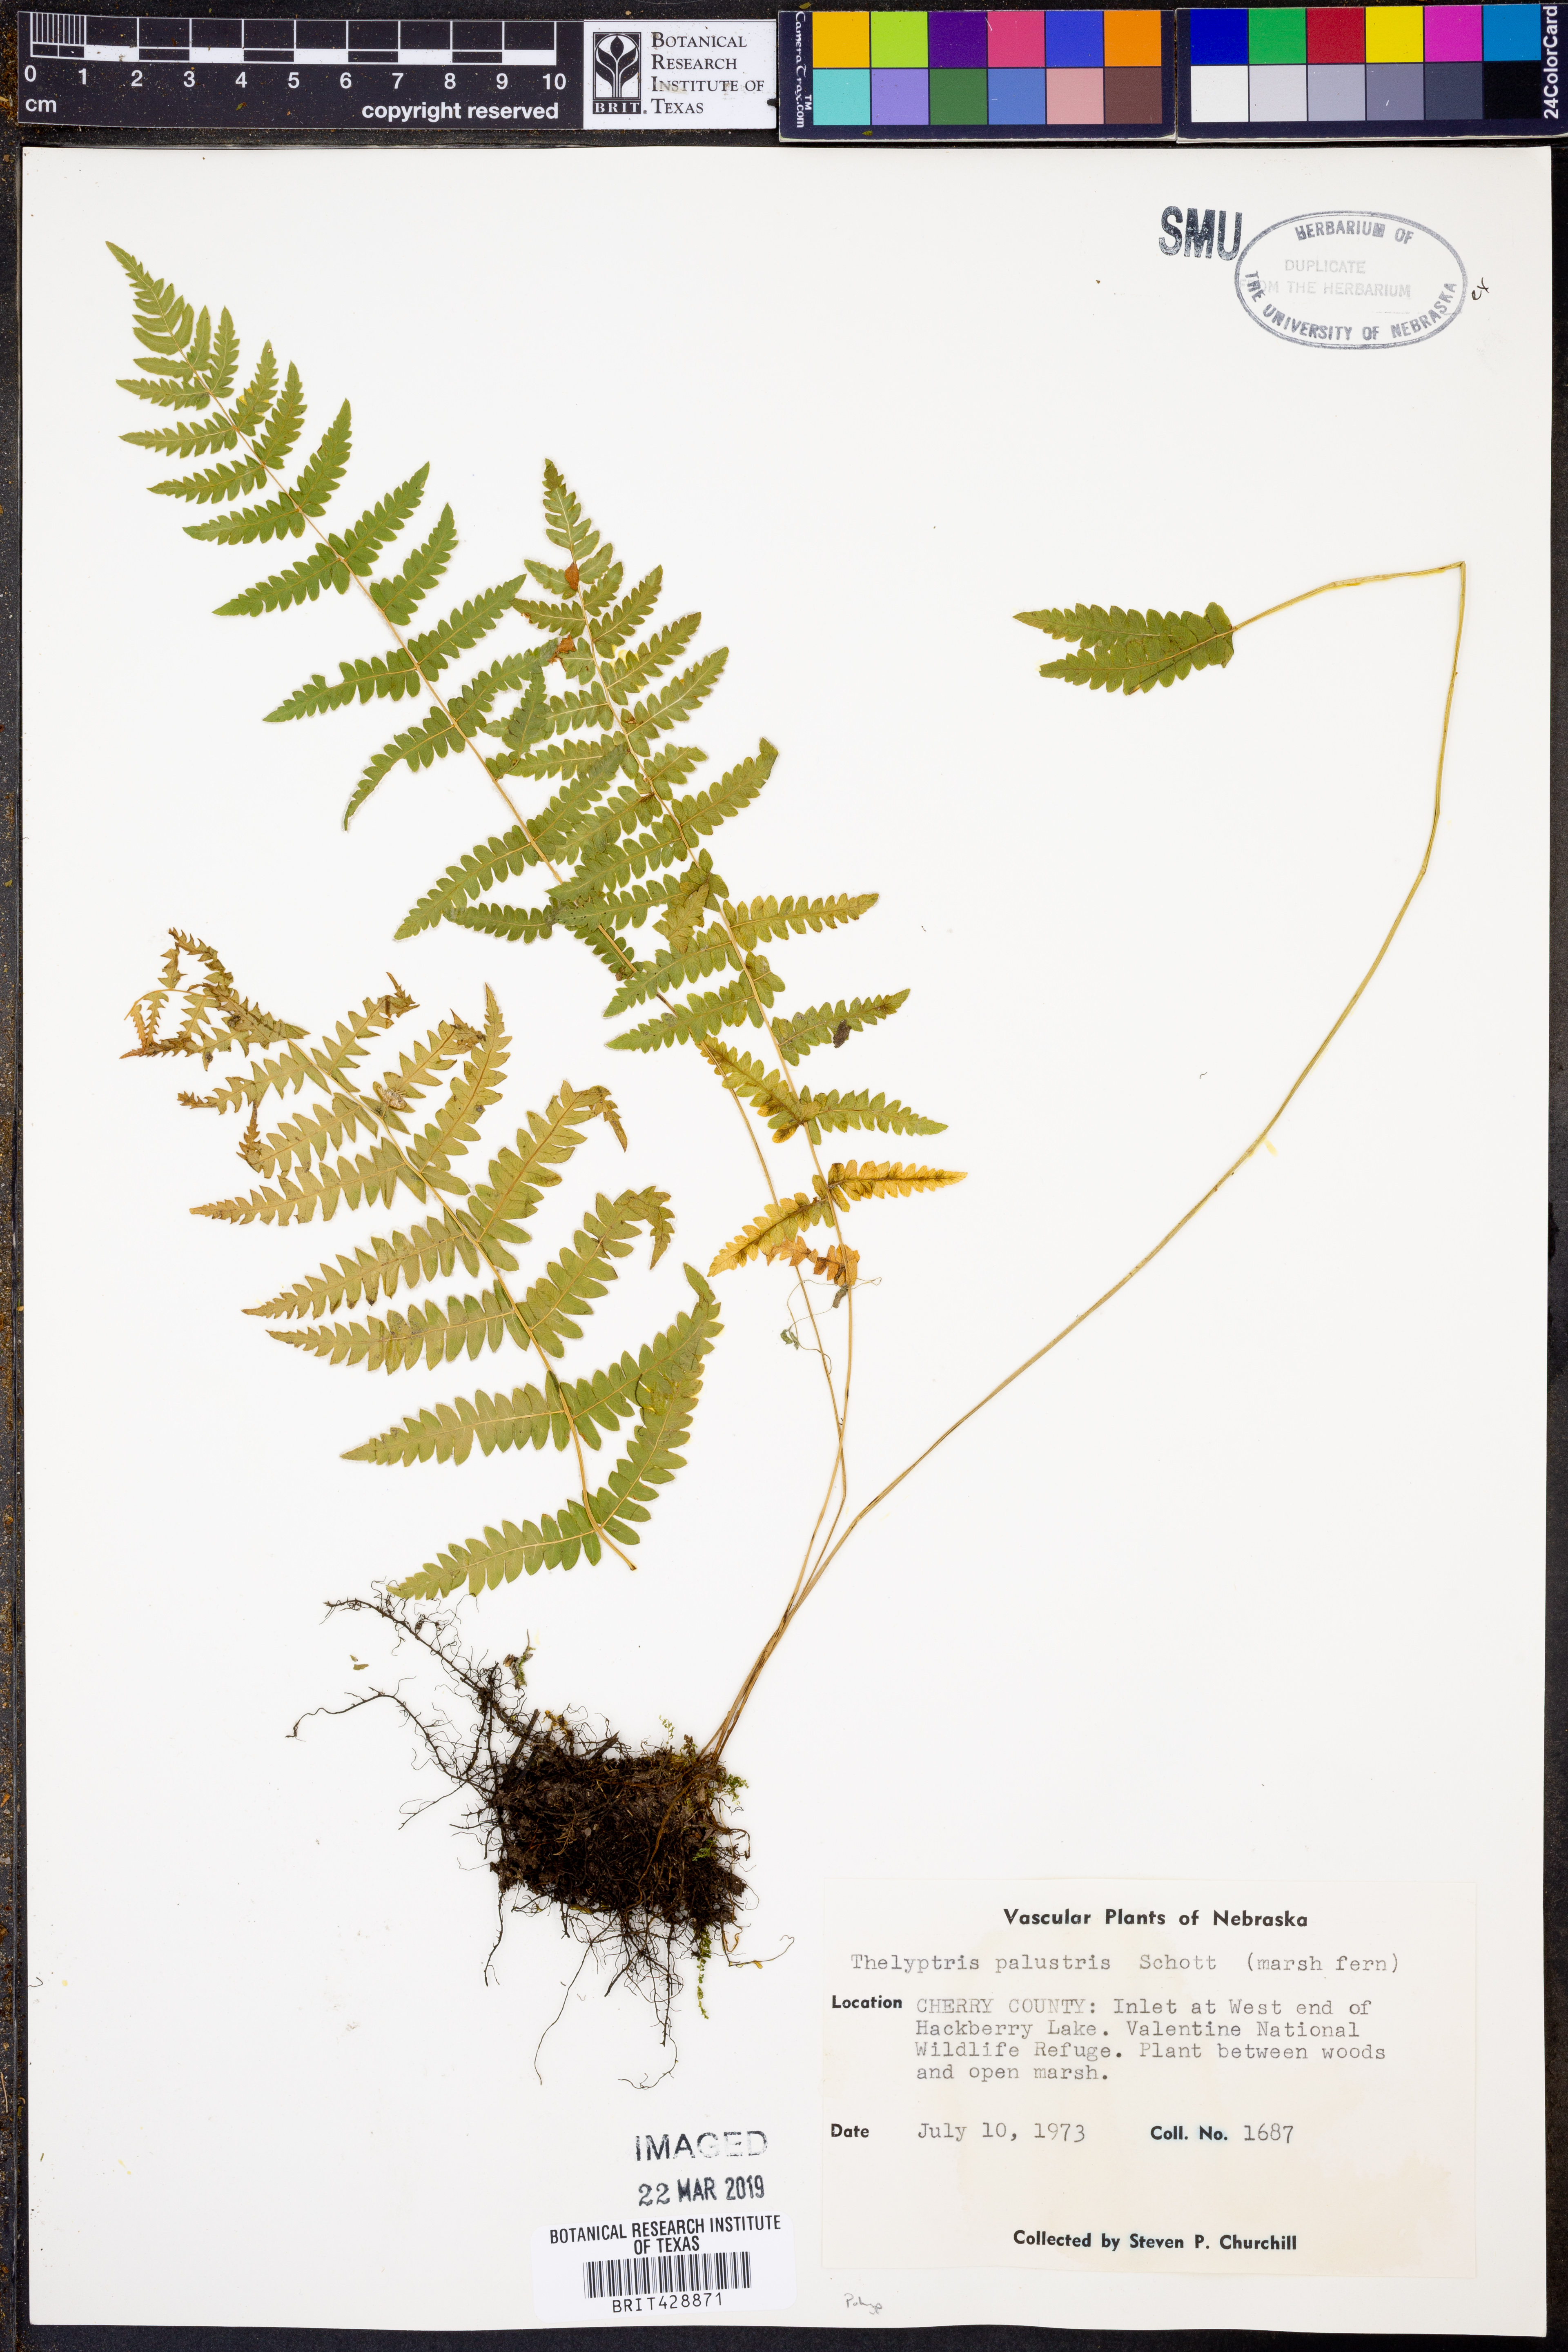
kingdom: Plantae
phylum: Tracheophyta
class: Polypodiopsida
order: Polypodiales
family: Thelypteridaceae
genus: Thelypteris
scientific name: Thelypteris palustris
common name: Marsh fern
